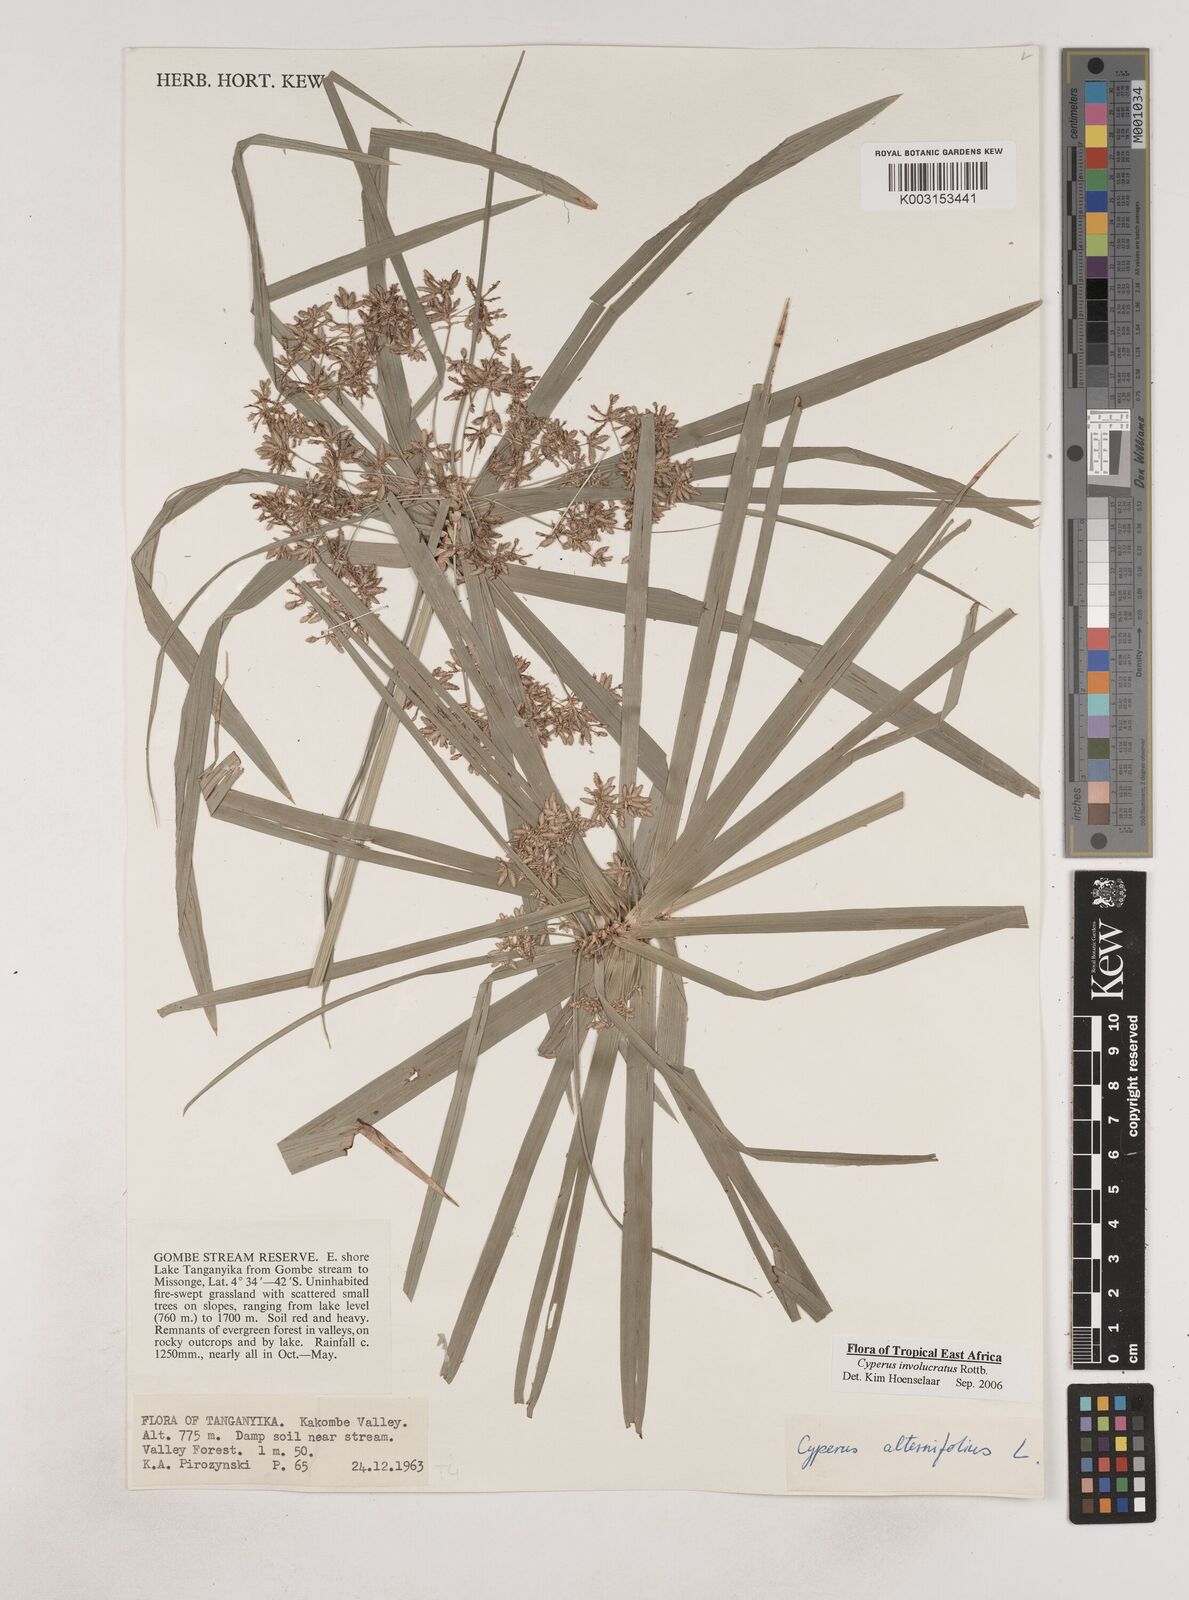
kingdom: Plantae
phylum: Tracheophyta
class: Liliopsida
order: Poales
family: Cyperaceae
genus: Cyperus
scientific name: Cyperus alternifolius
